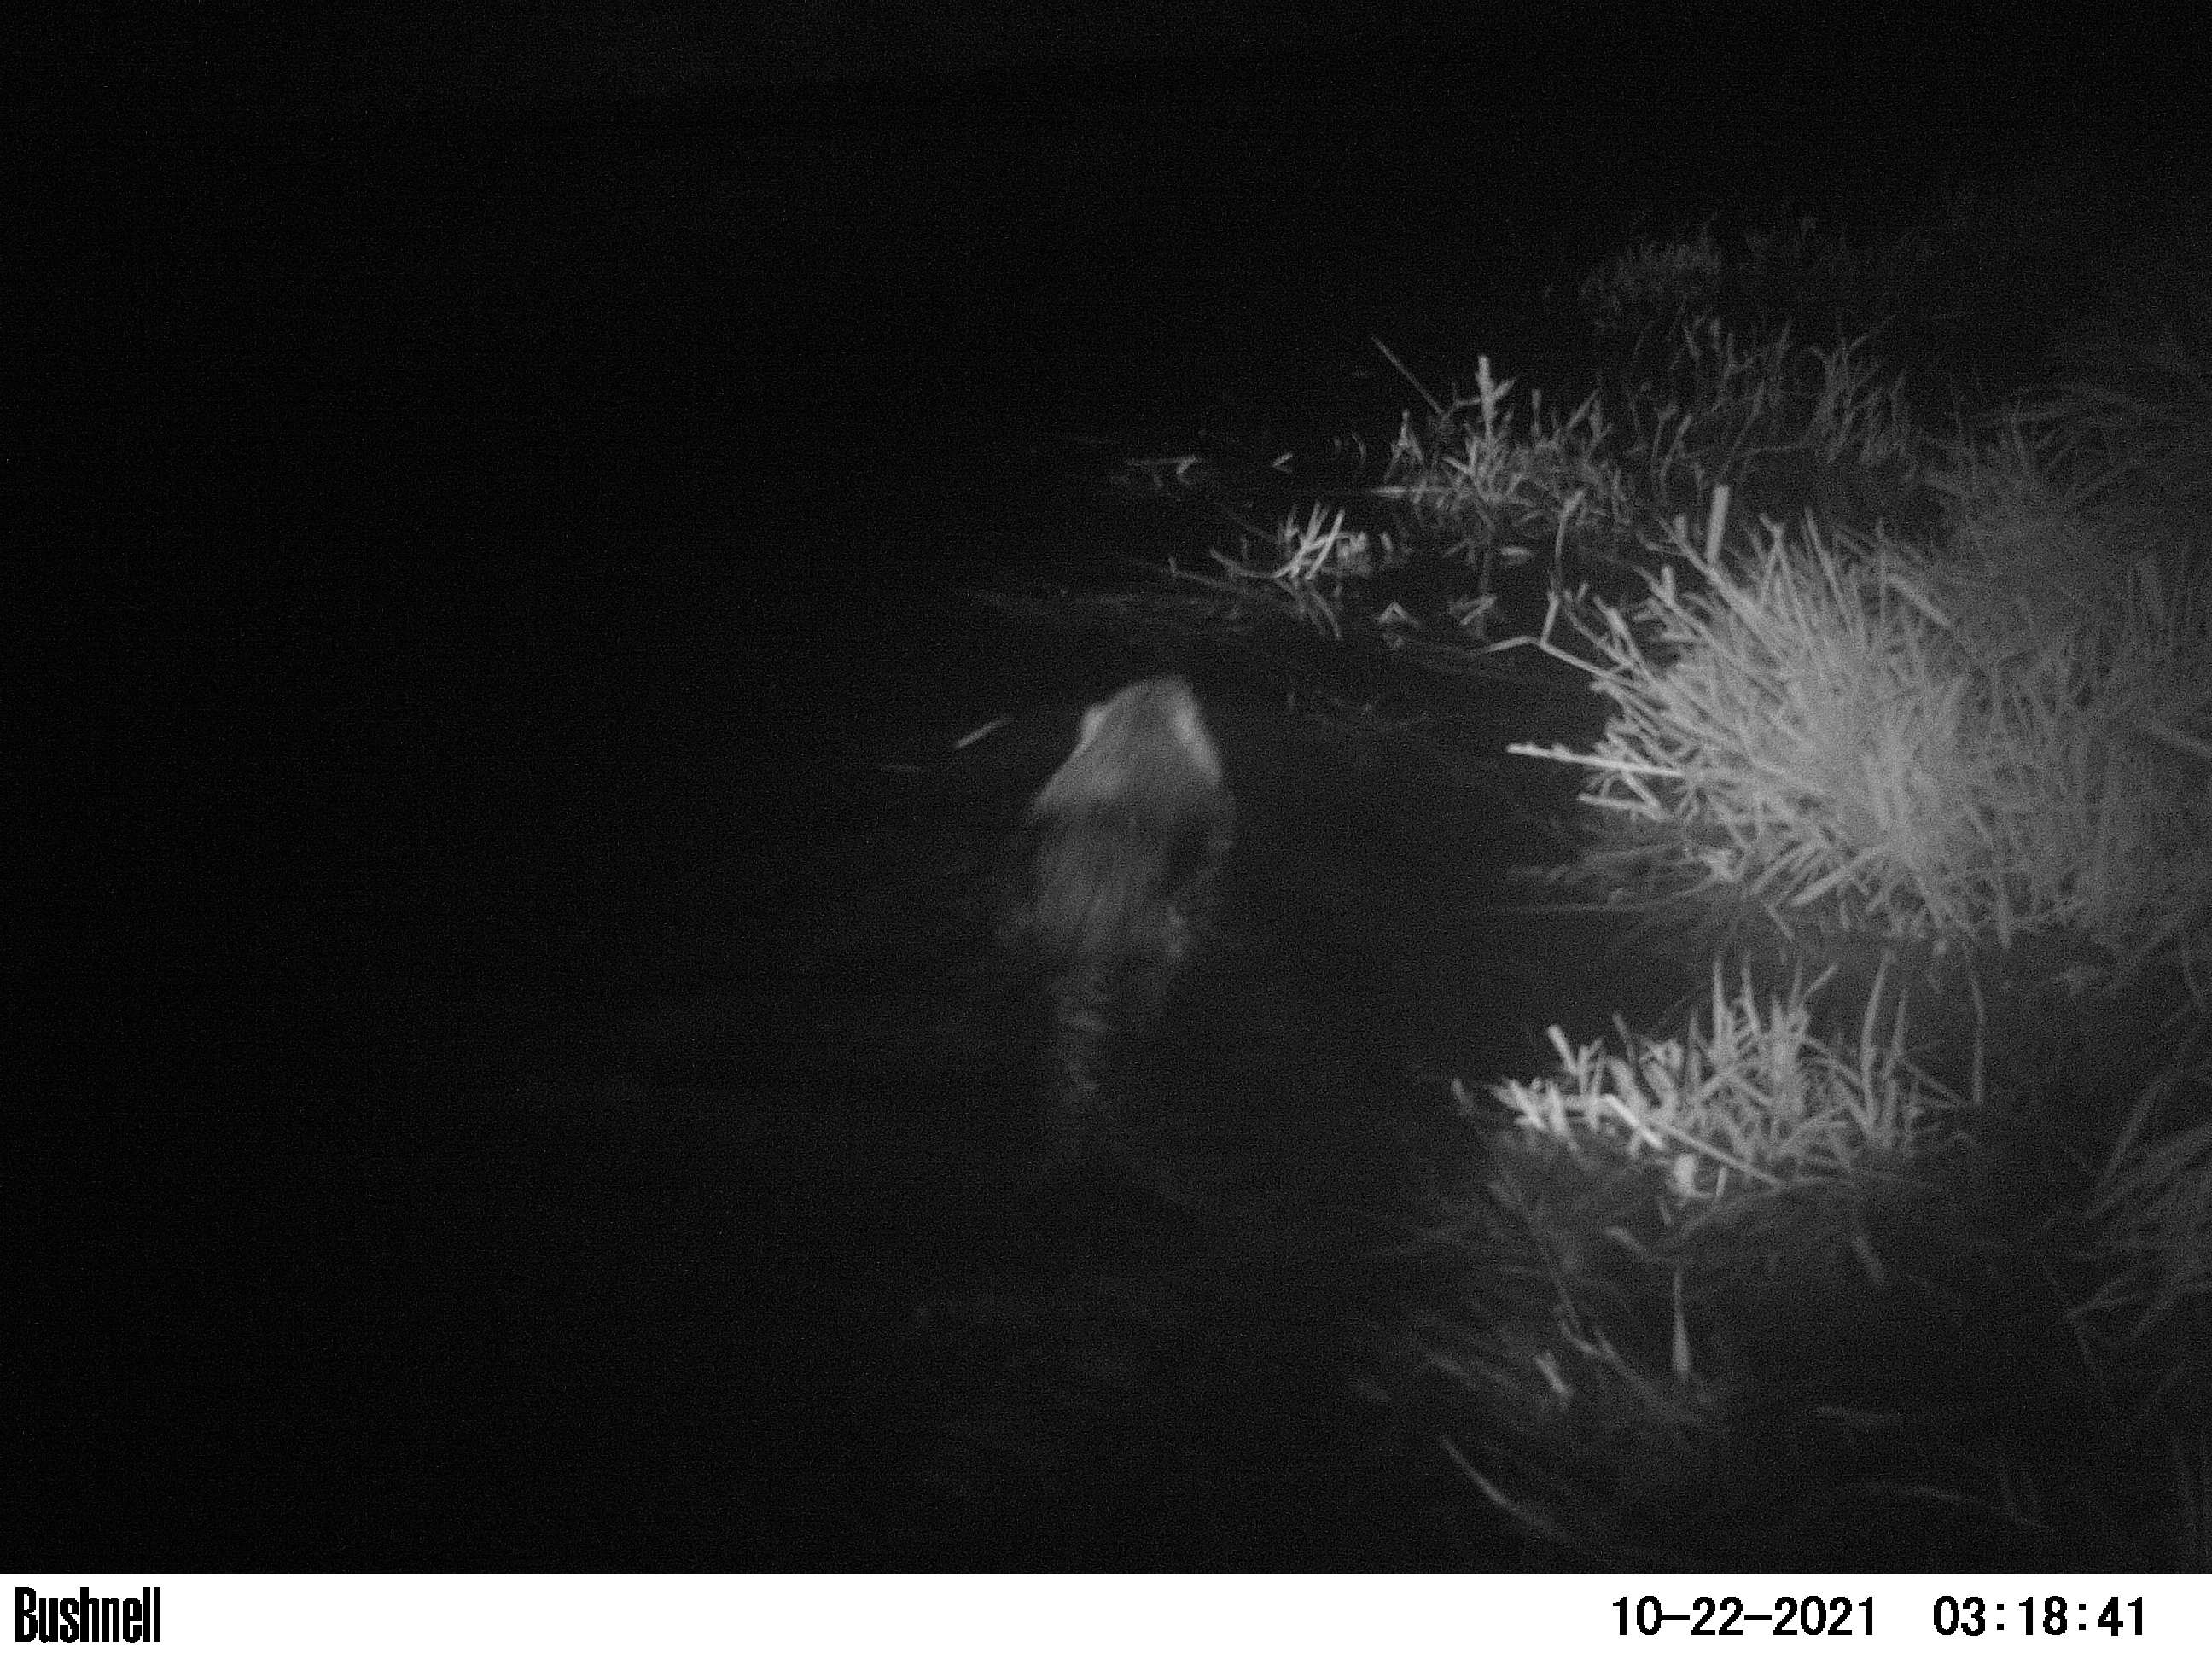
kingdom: Animalia
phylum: Chordata
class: Mammalia
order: Rodentia
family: Cricetidae
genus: Ondatra
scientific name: Ondatra zibethicus
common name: Muskrat
